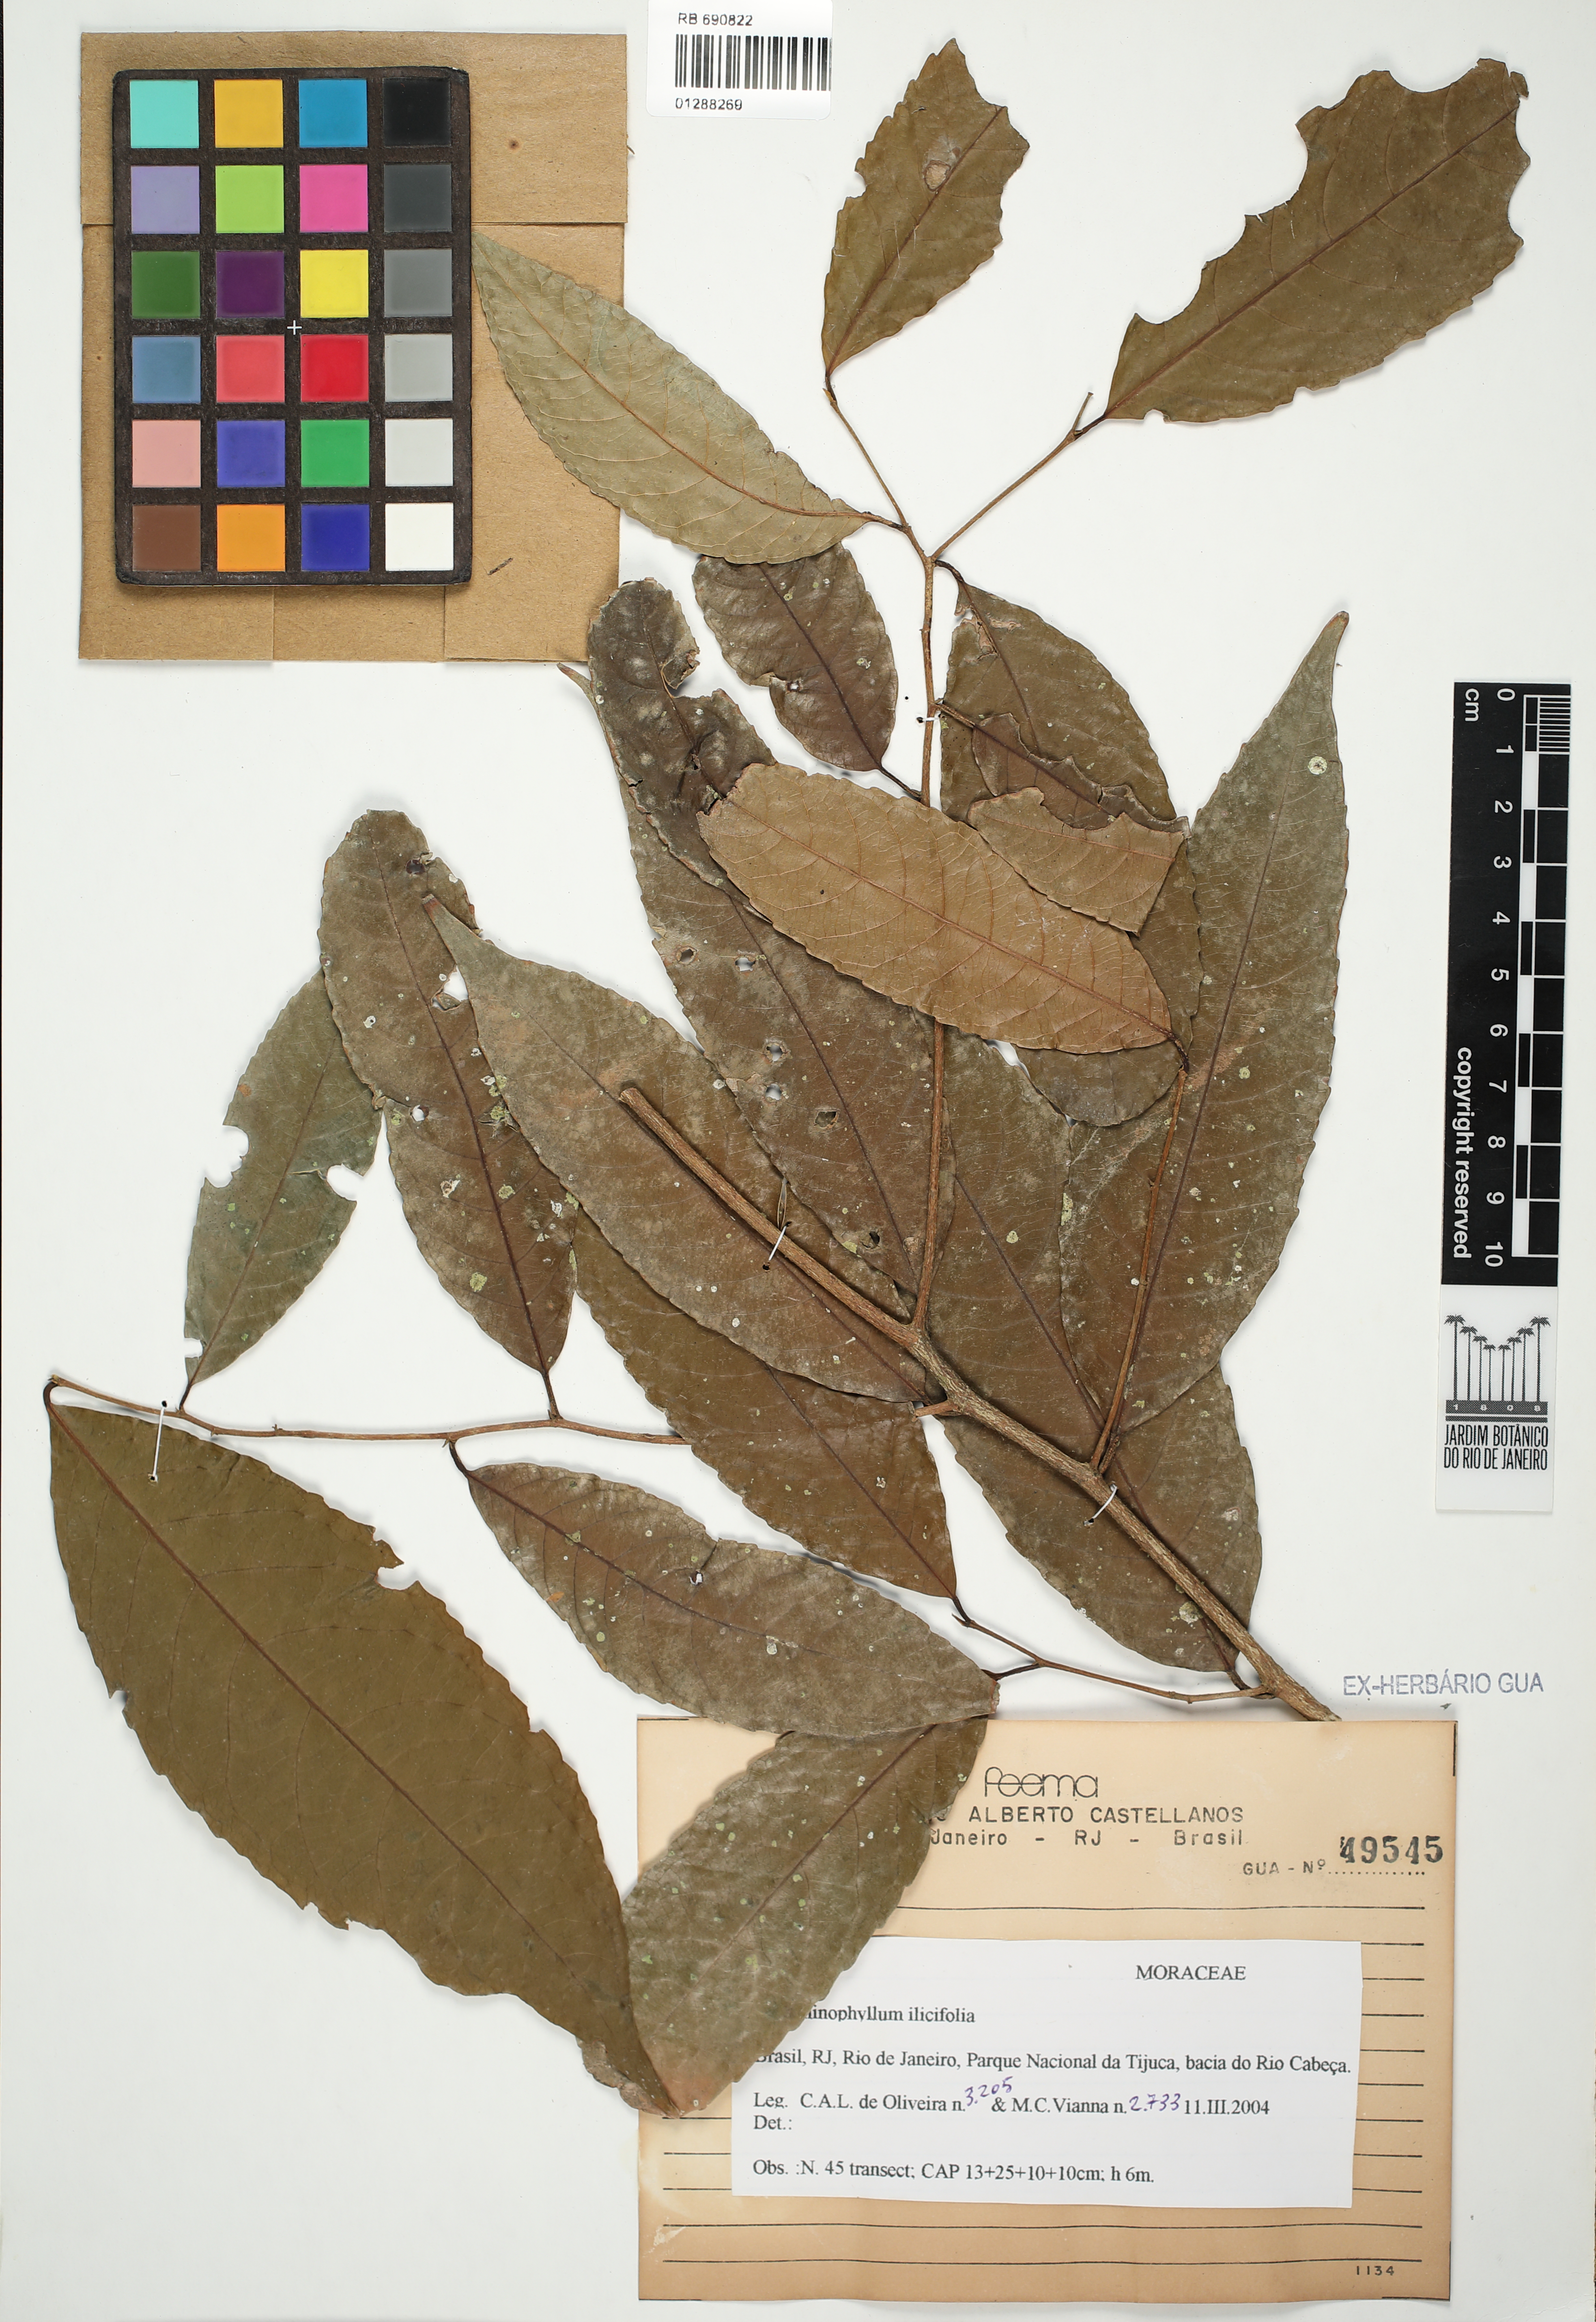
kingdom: Plantae
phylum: Tracheophyta
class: Magnoliopsida
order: Rosales
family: Moraceae
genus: Clarisia
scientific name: Clarisia ilicifolia
